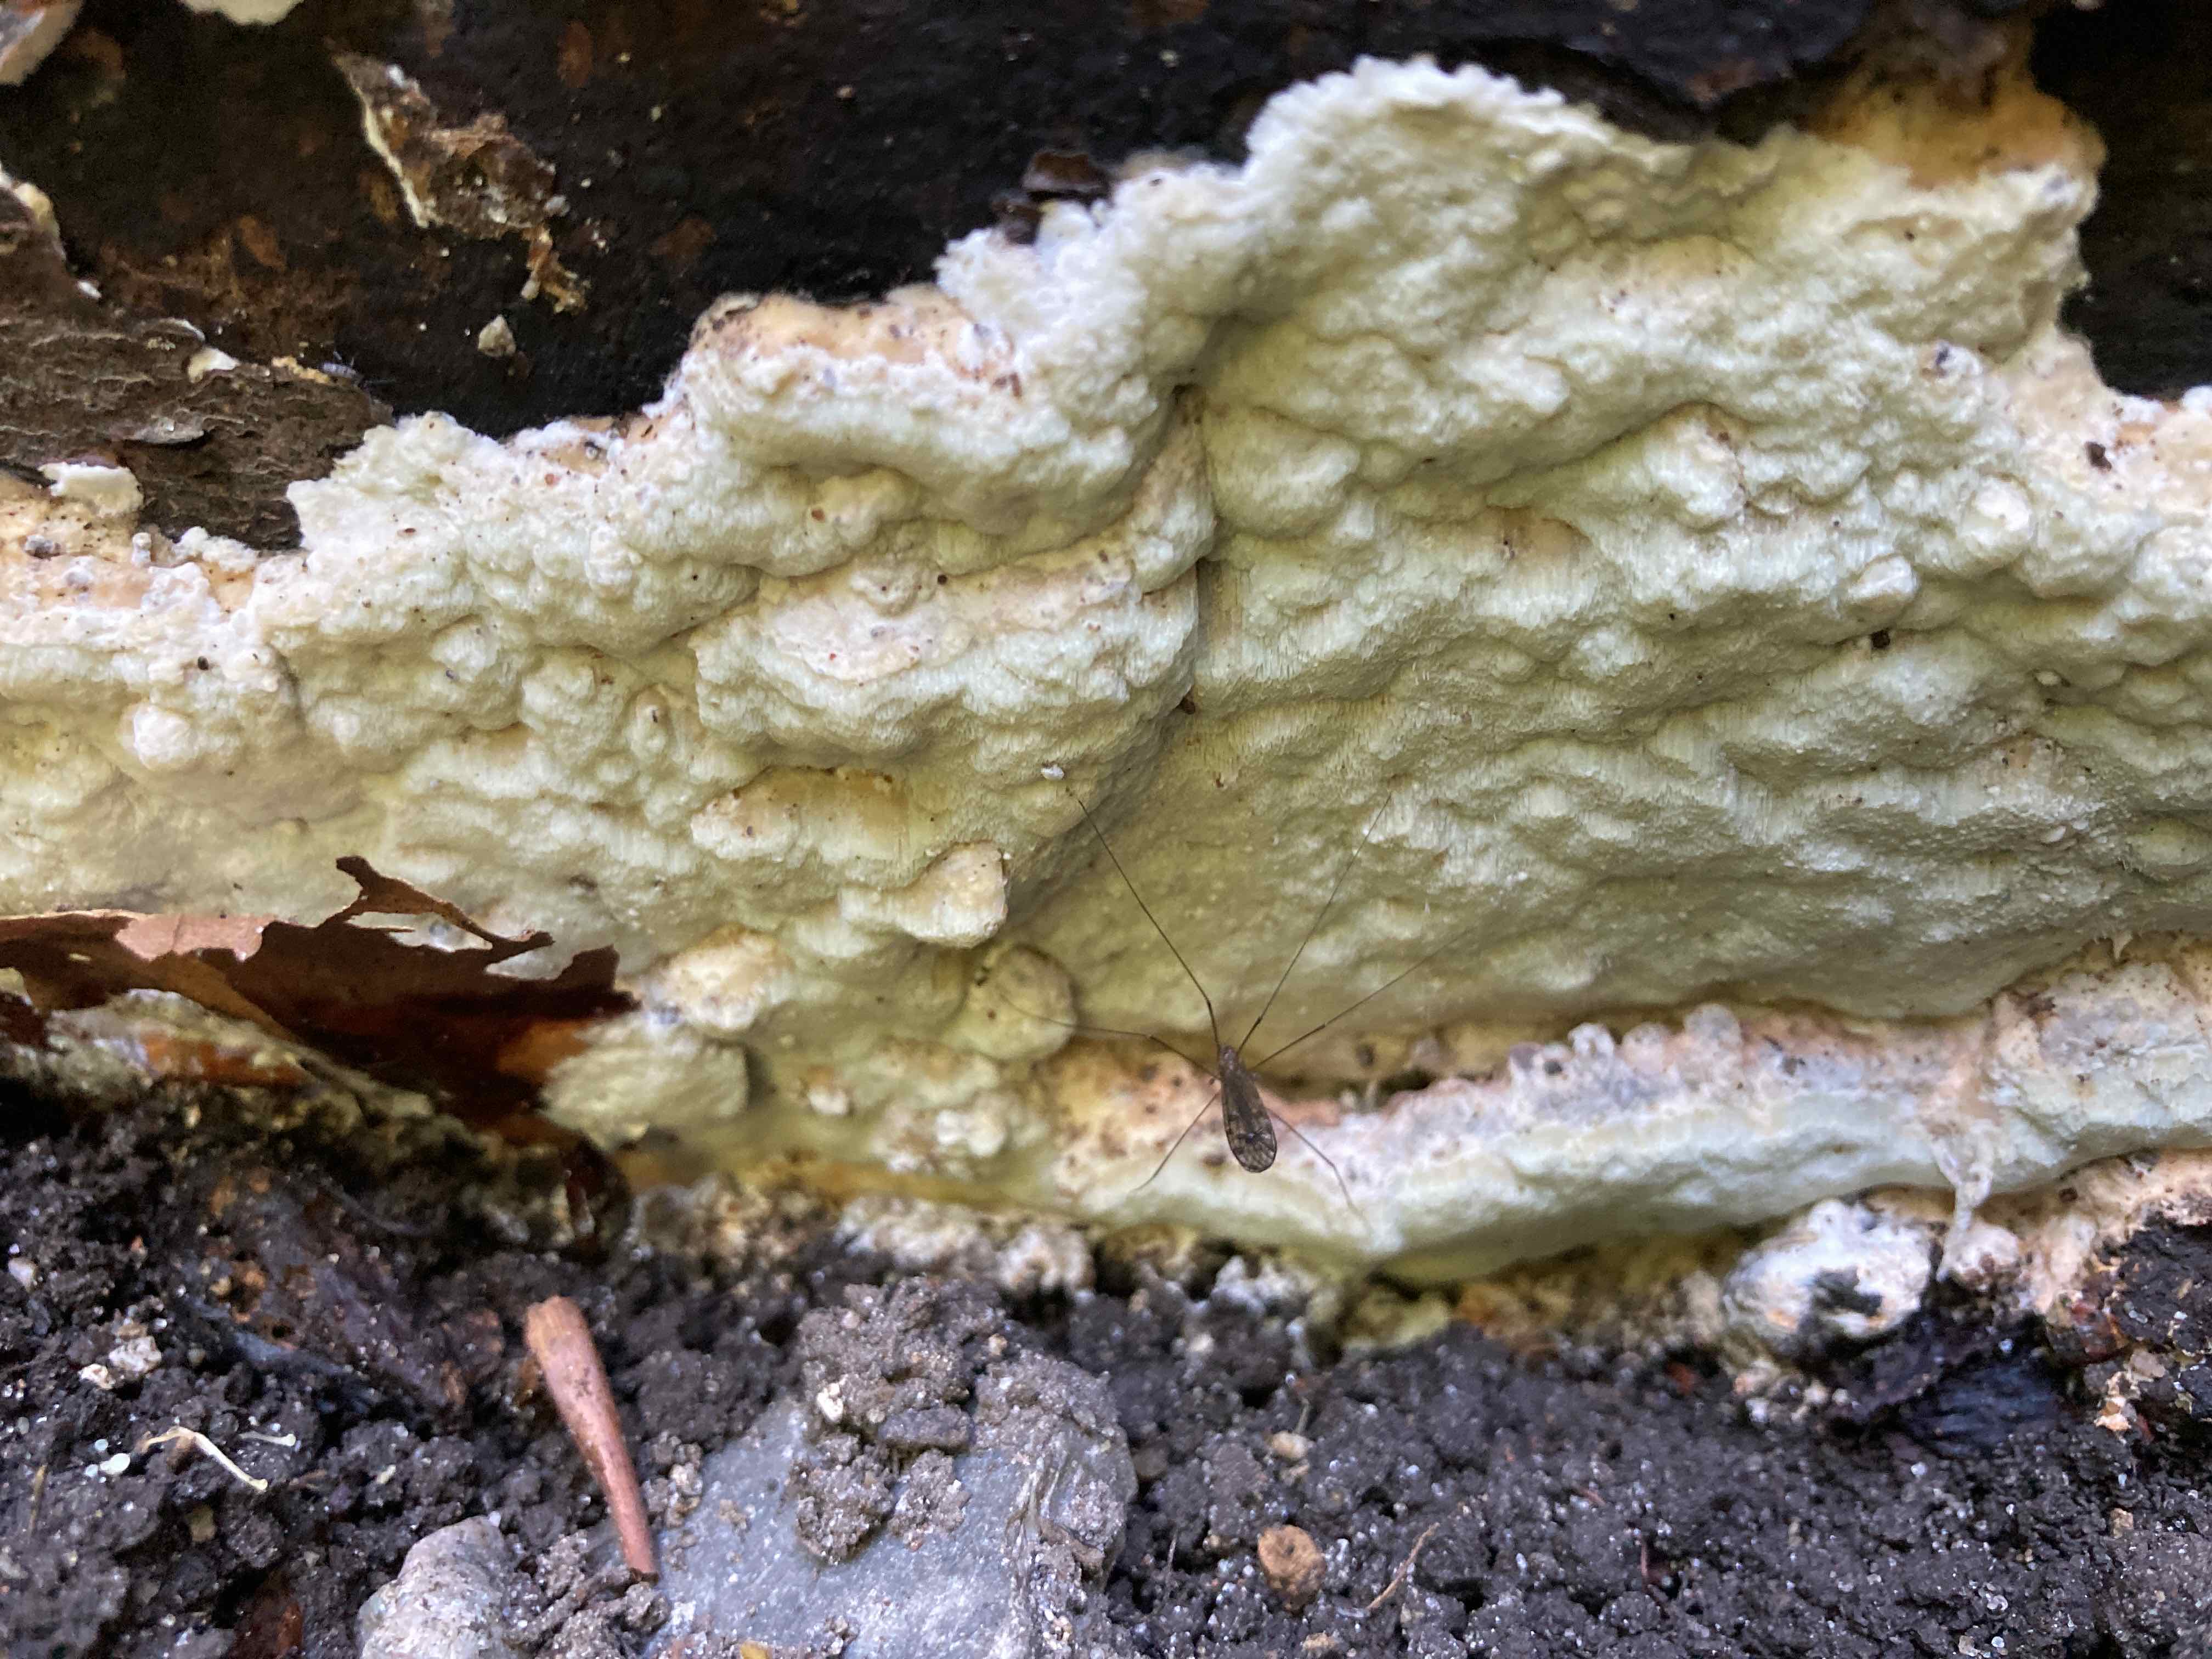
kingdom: Fungi
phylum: Basidiomycota
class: Agaricomycetes
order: Polyporales
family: Irpicaceae
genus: Gloeoporus
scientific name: Gloeoporus pannocinctus
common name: grøngul foldporesvamp
